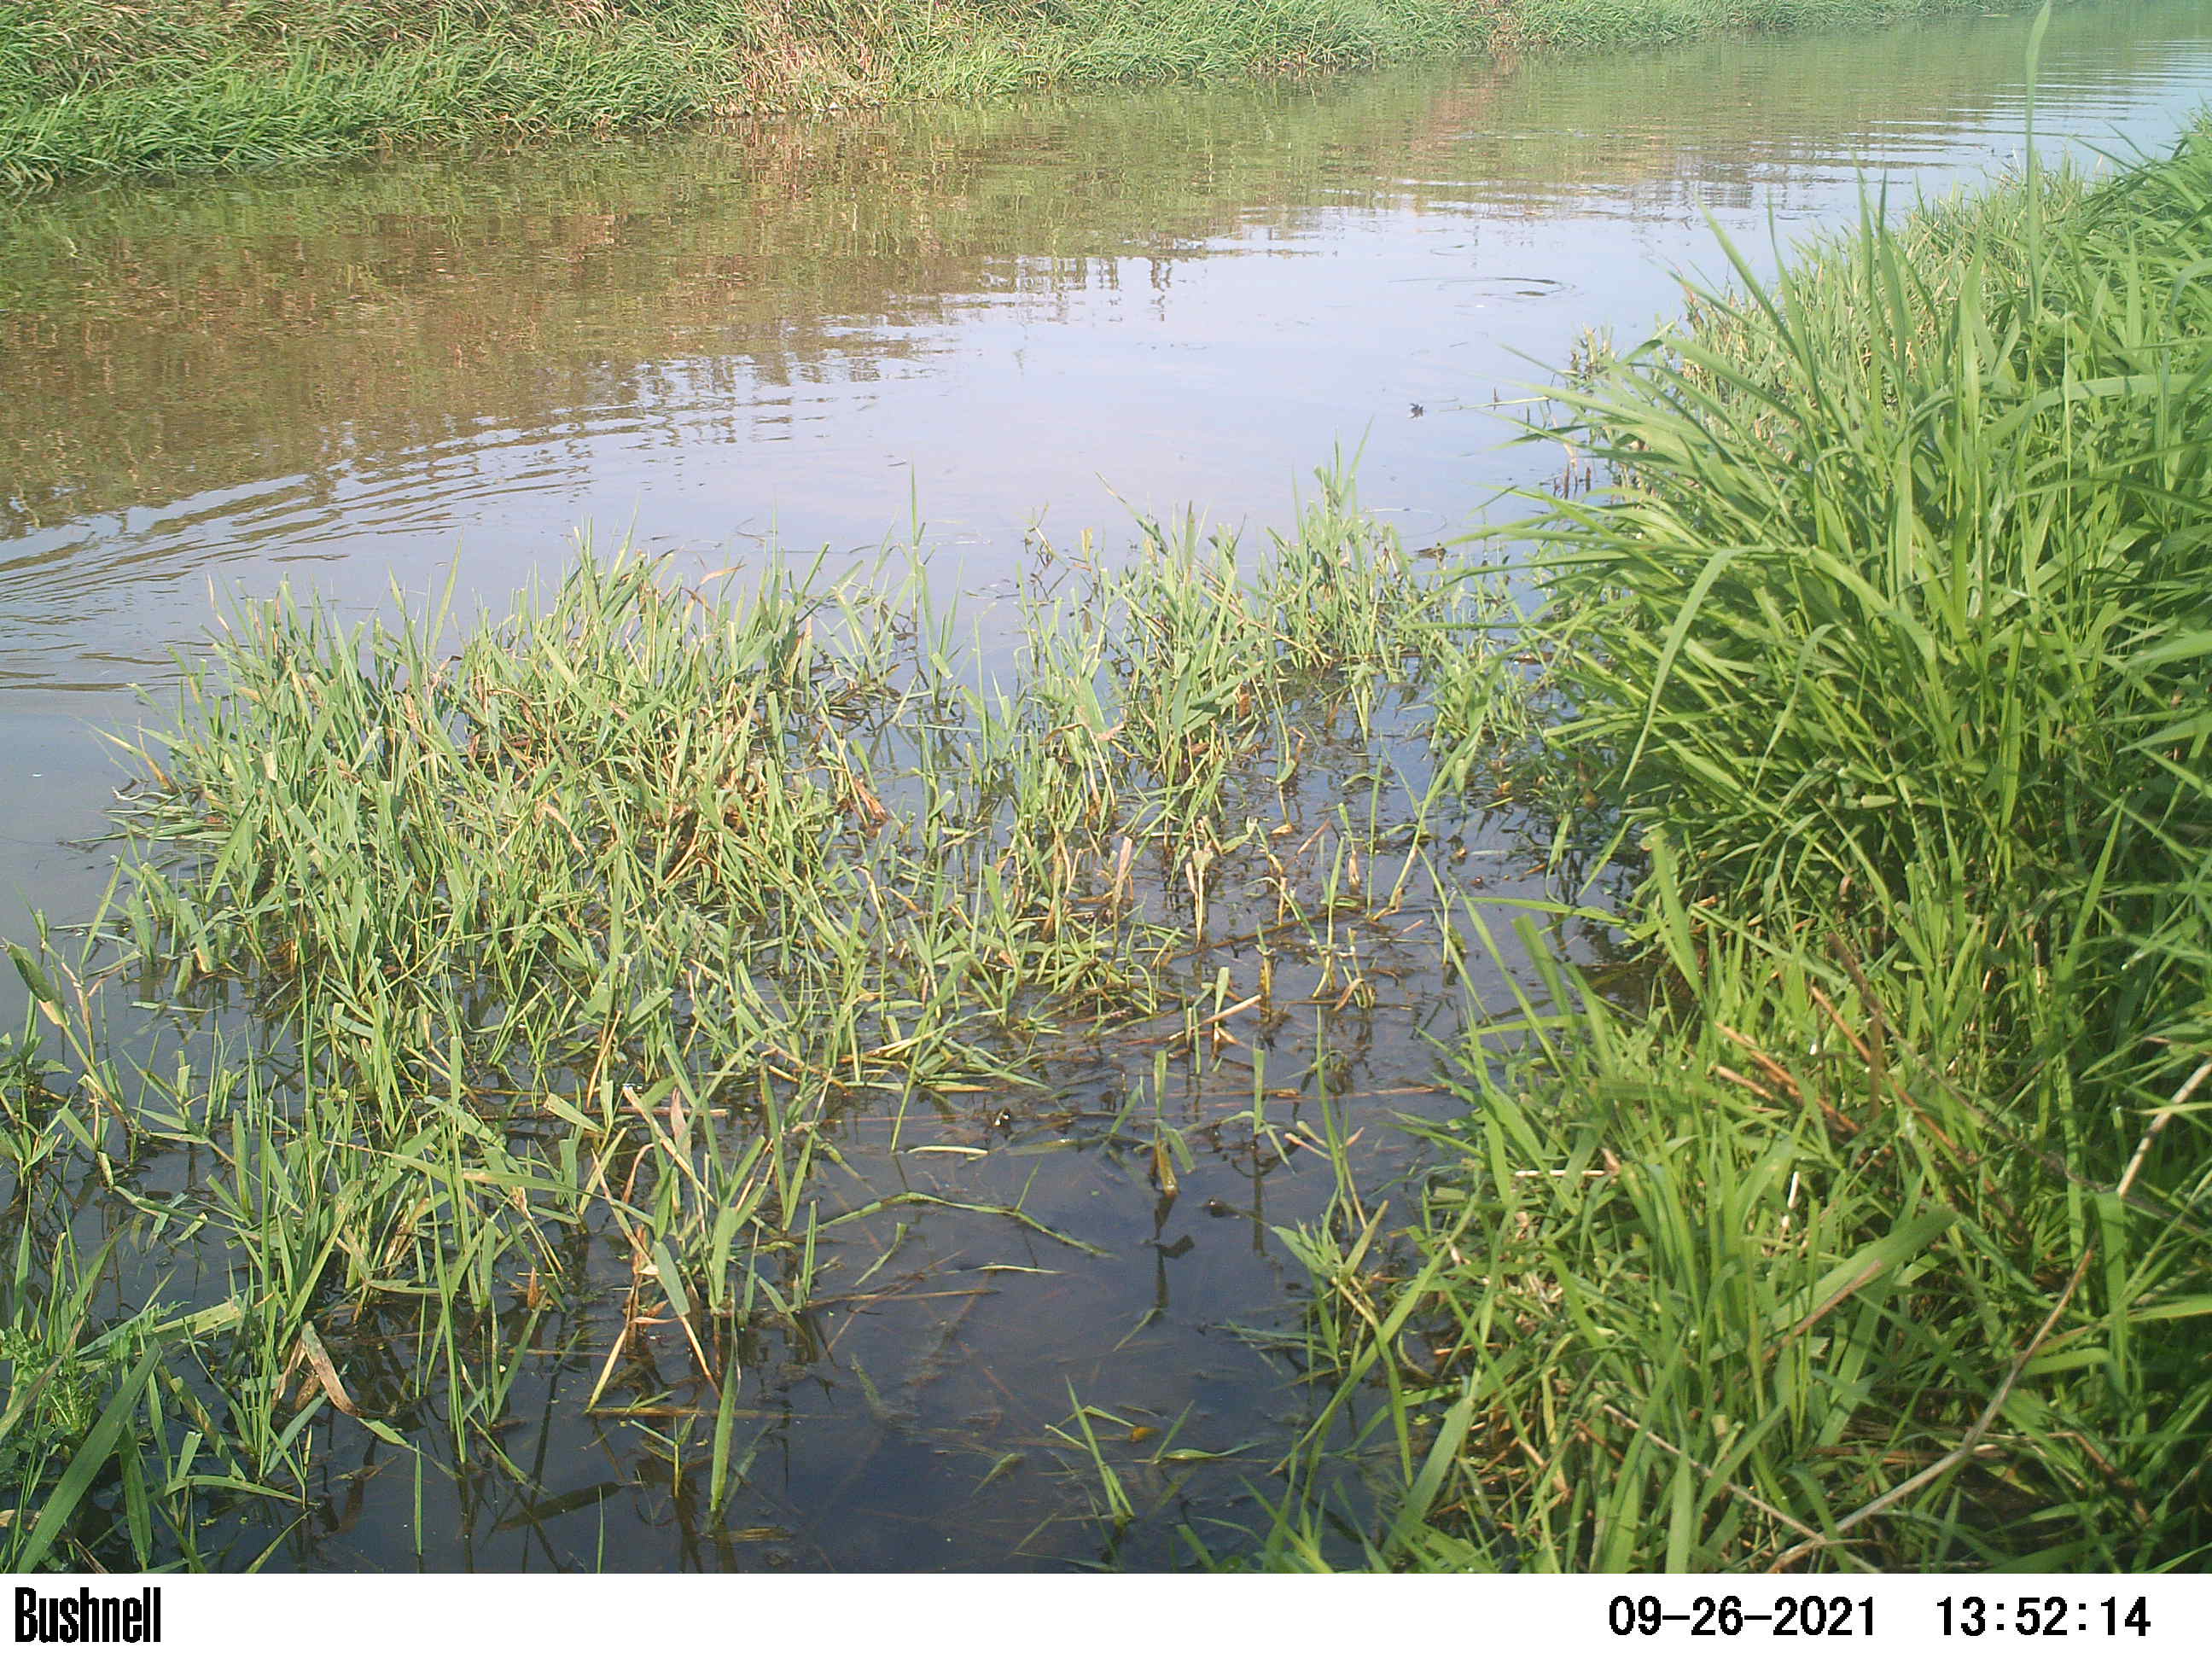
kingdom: Animalia
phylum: Chordata
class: Aves
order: Gruiformes
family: Rallidae
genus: Fulica
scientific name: Fulica atra
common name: Eurasian coot
